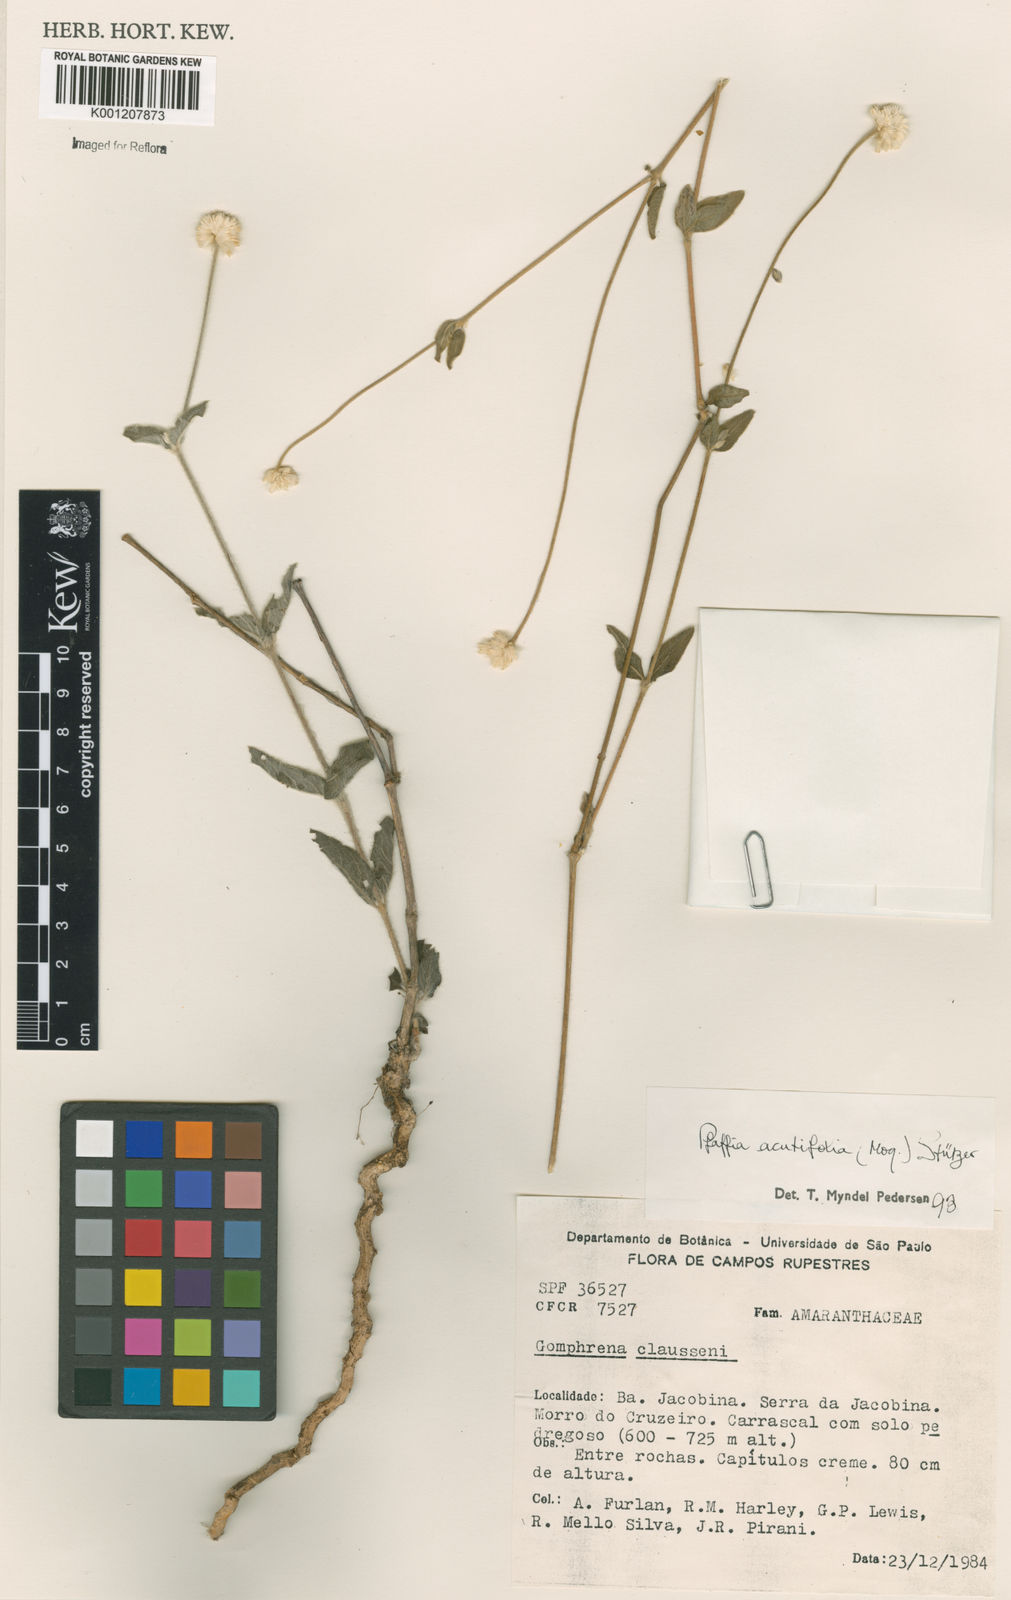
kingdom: Plantae
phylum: Tracheophyta
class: Magnoliopsida
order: Caryophyllales
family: Amaranthaceae
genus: Pfaffia
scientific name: Pfaffia
